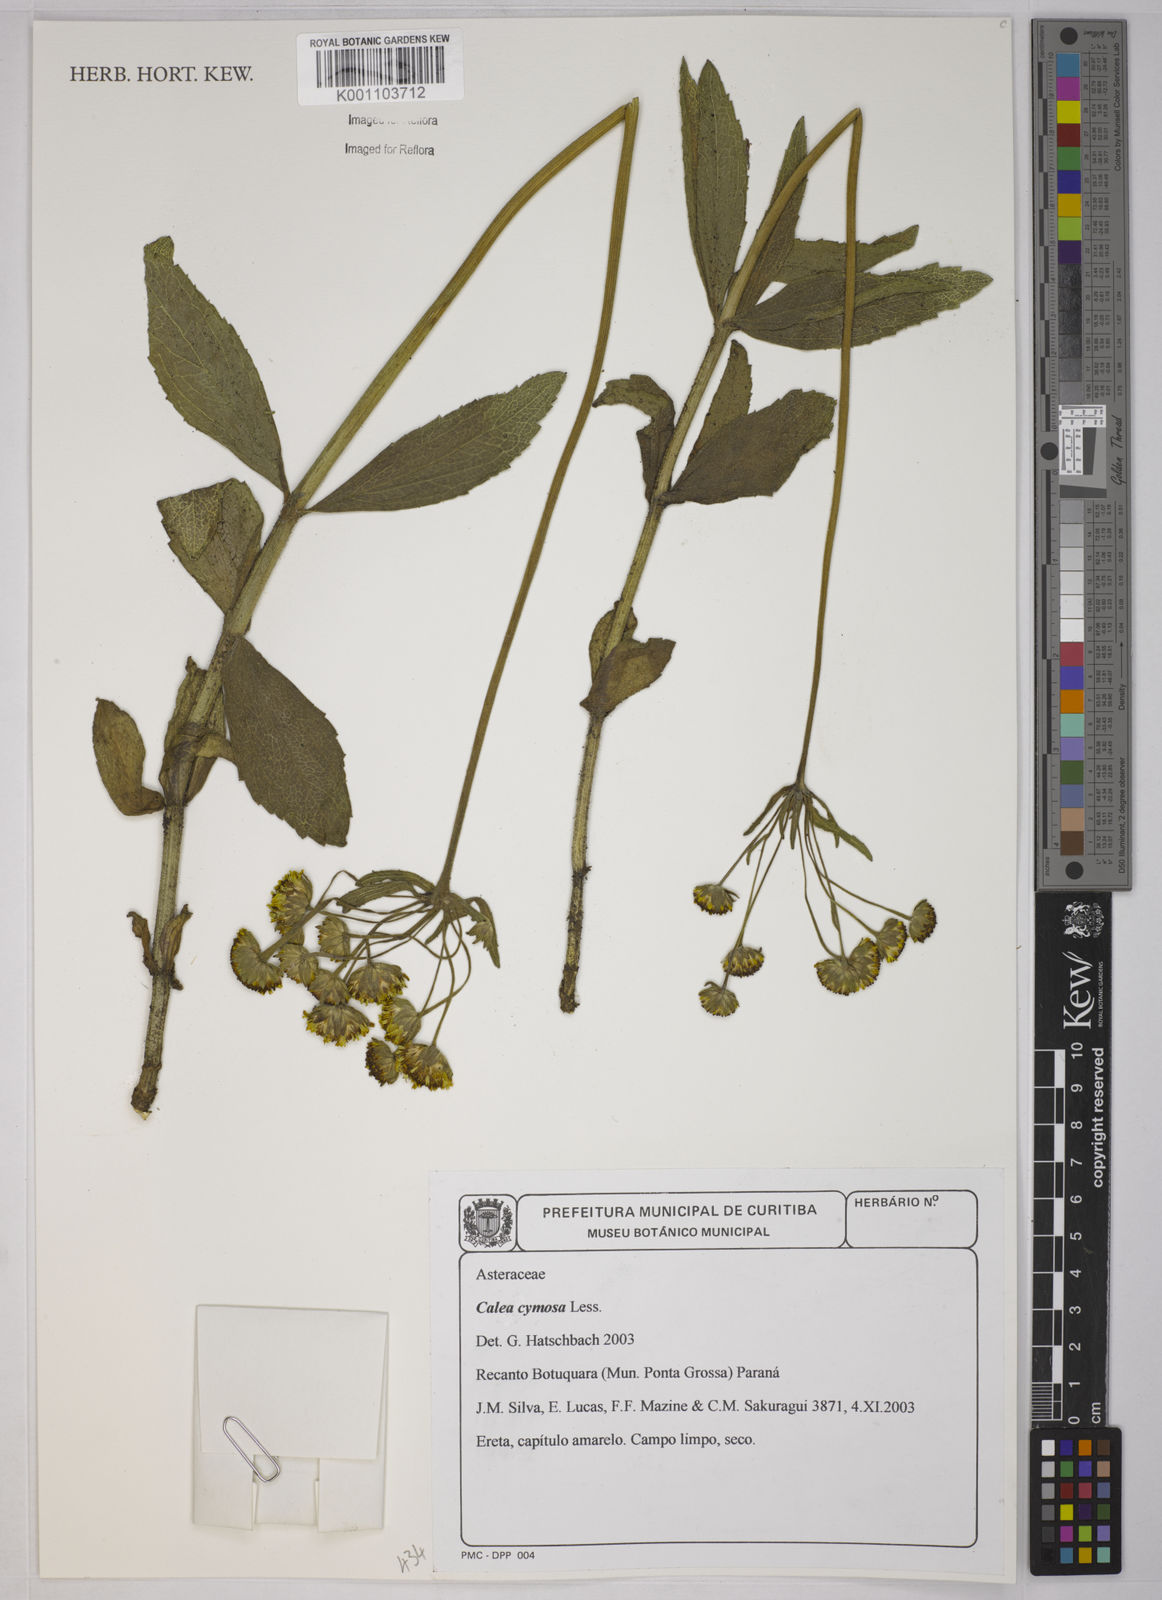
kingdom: Plantae
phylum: Tracheophyta
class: Magnoliopsida
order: Asterales
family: Asteraceae
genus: Calea
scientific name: Calea cymosa
